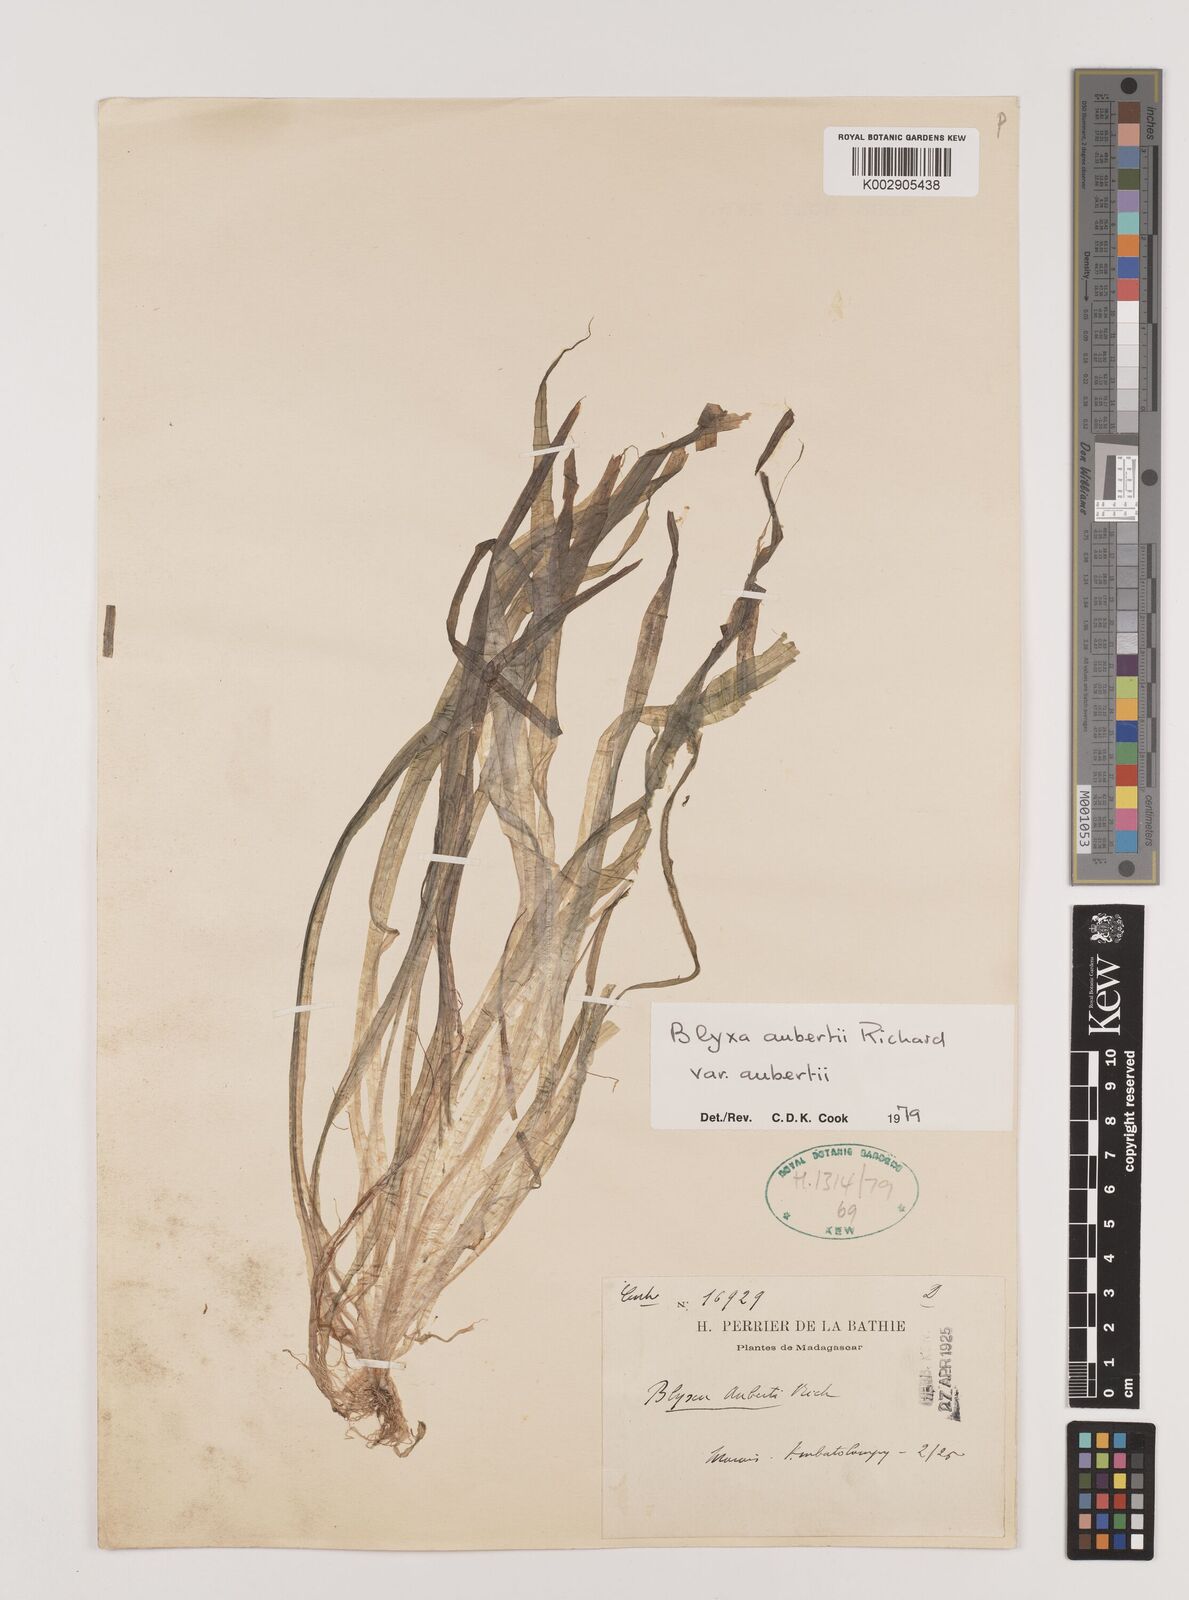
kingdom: Plantae
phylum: Tracheophyta
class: Liliopsida
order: Alismatales
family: Hydrocharitaceae
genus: Blyxa
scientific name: Blyxa aubertii
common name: Roundfruit blyxa
